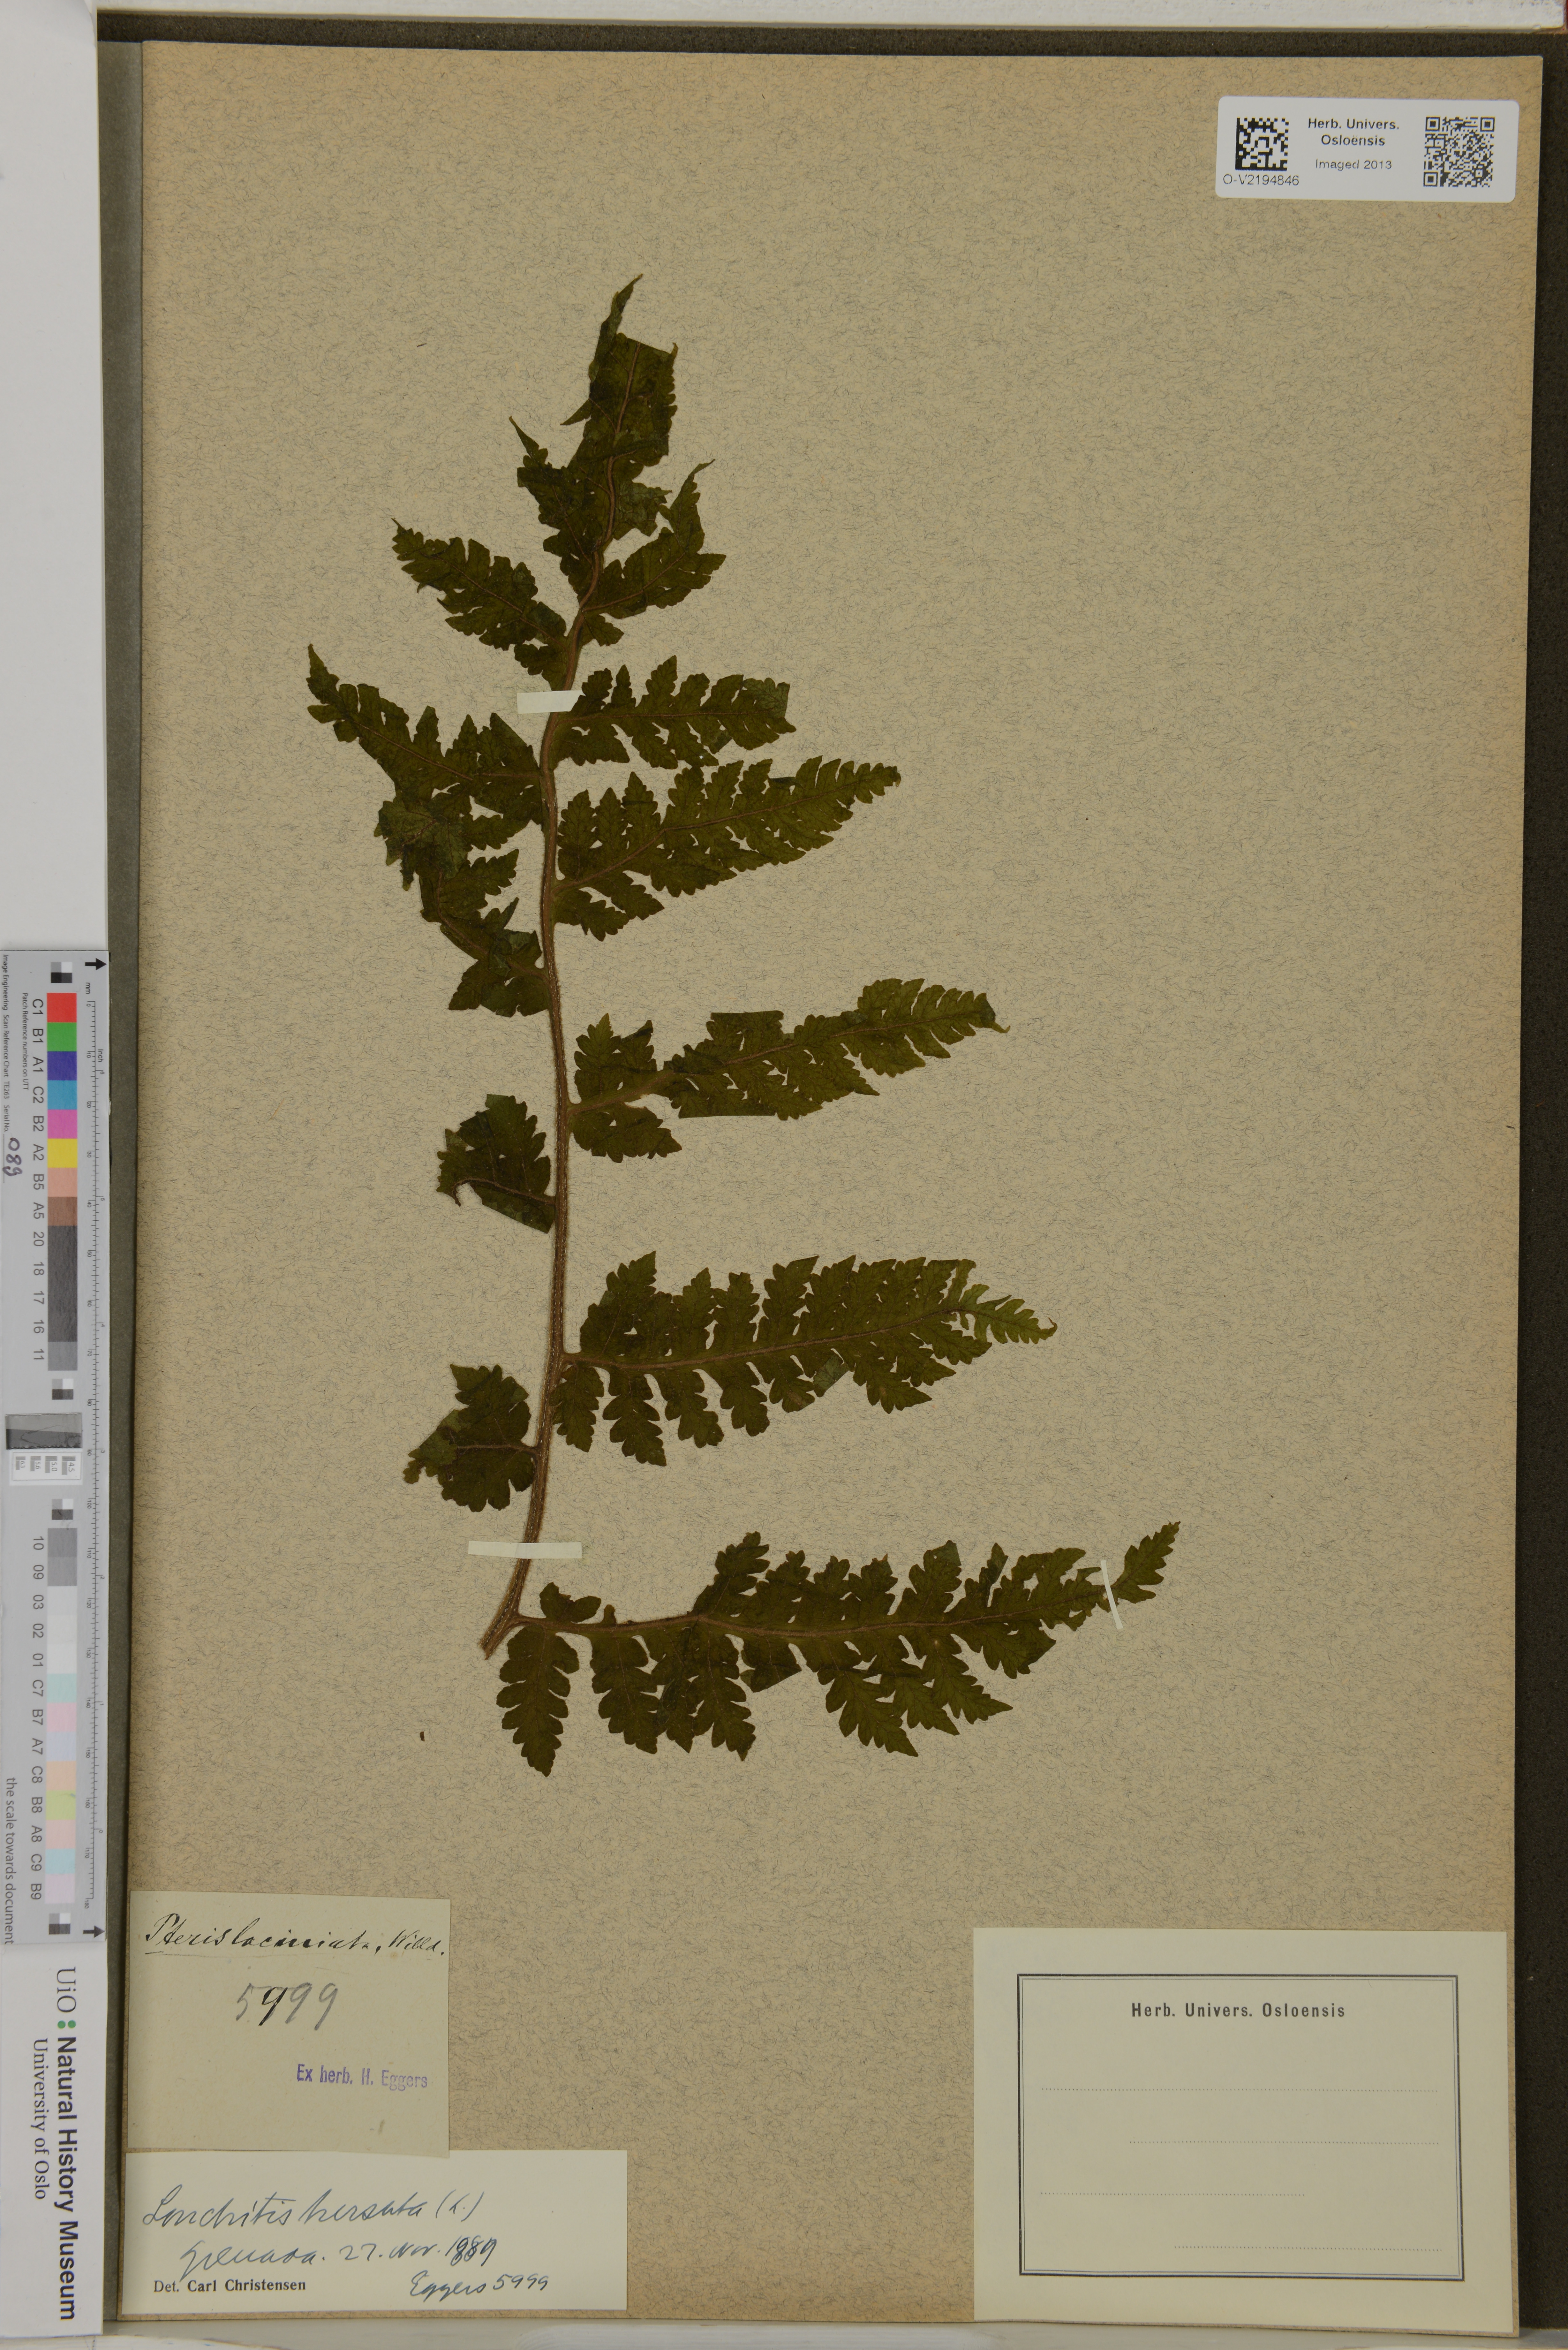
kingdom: Plantae
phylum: Tracheophyta
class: Polypodiopsida
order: Polypodiales
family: Lonchitidaceae
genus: Lonchitis
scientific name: Lonchitis hirsuta
